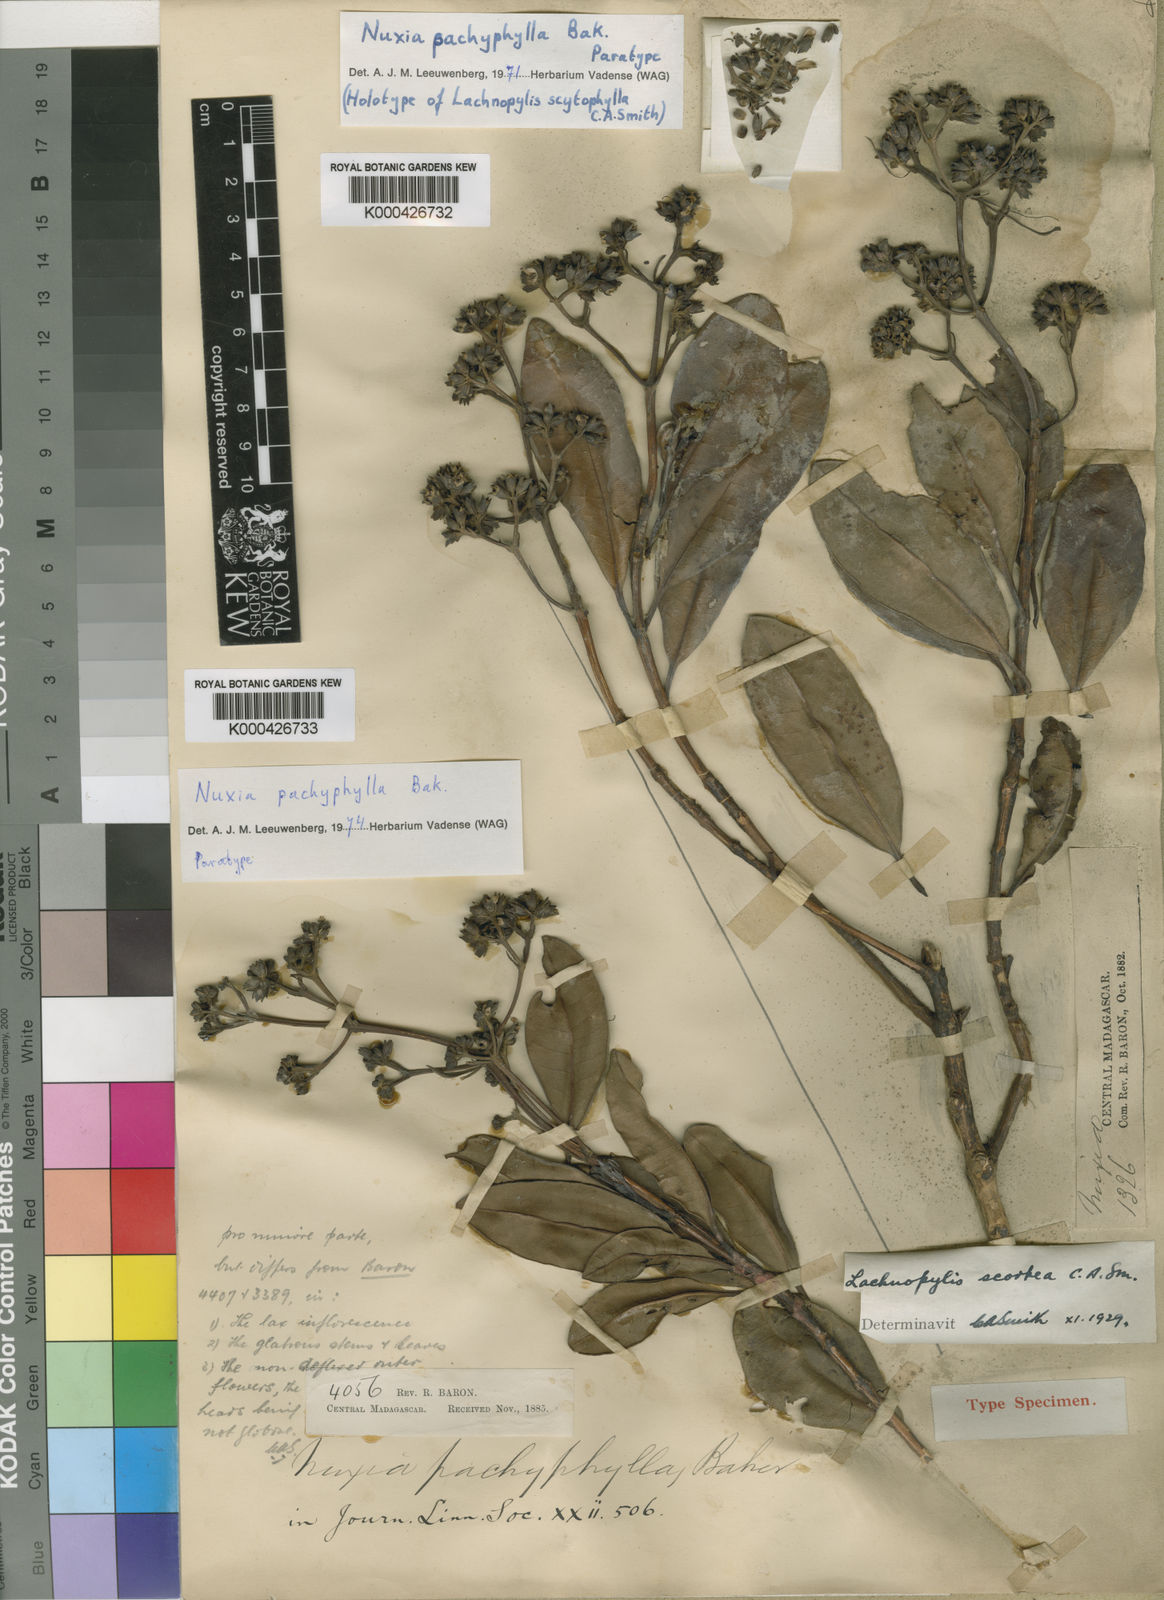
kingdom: Plantae
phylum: Tracheophyta
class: Magnoliopsida
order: Lamiales
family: Stilbaceae
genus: Nuxia
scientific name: Nuxia pachyphylla
